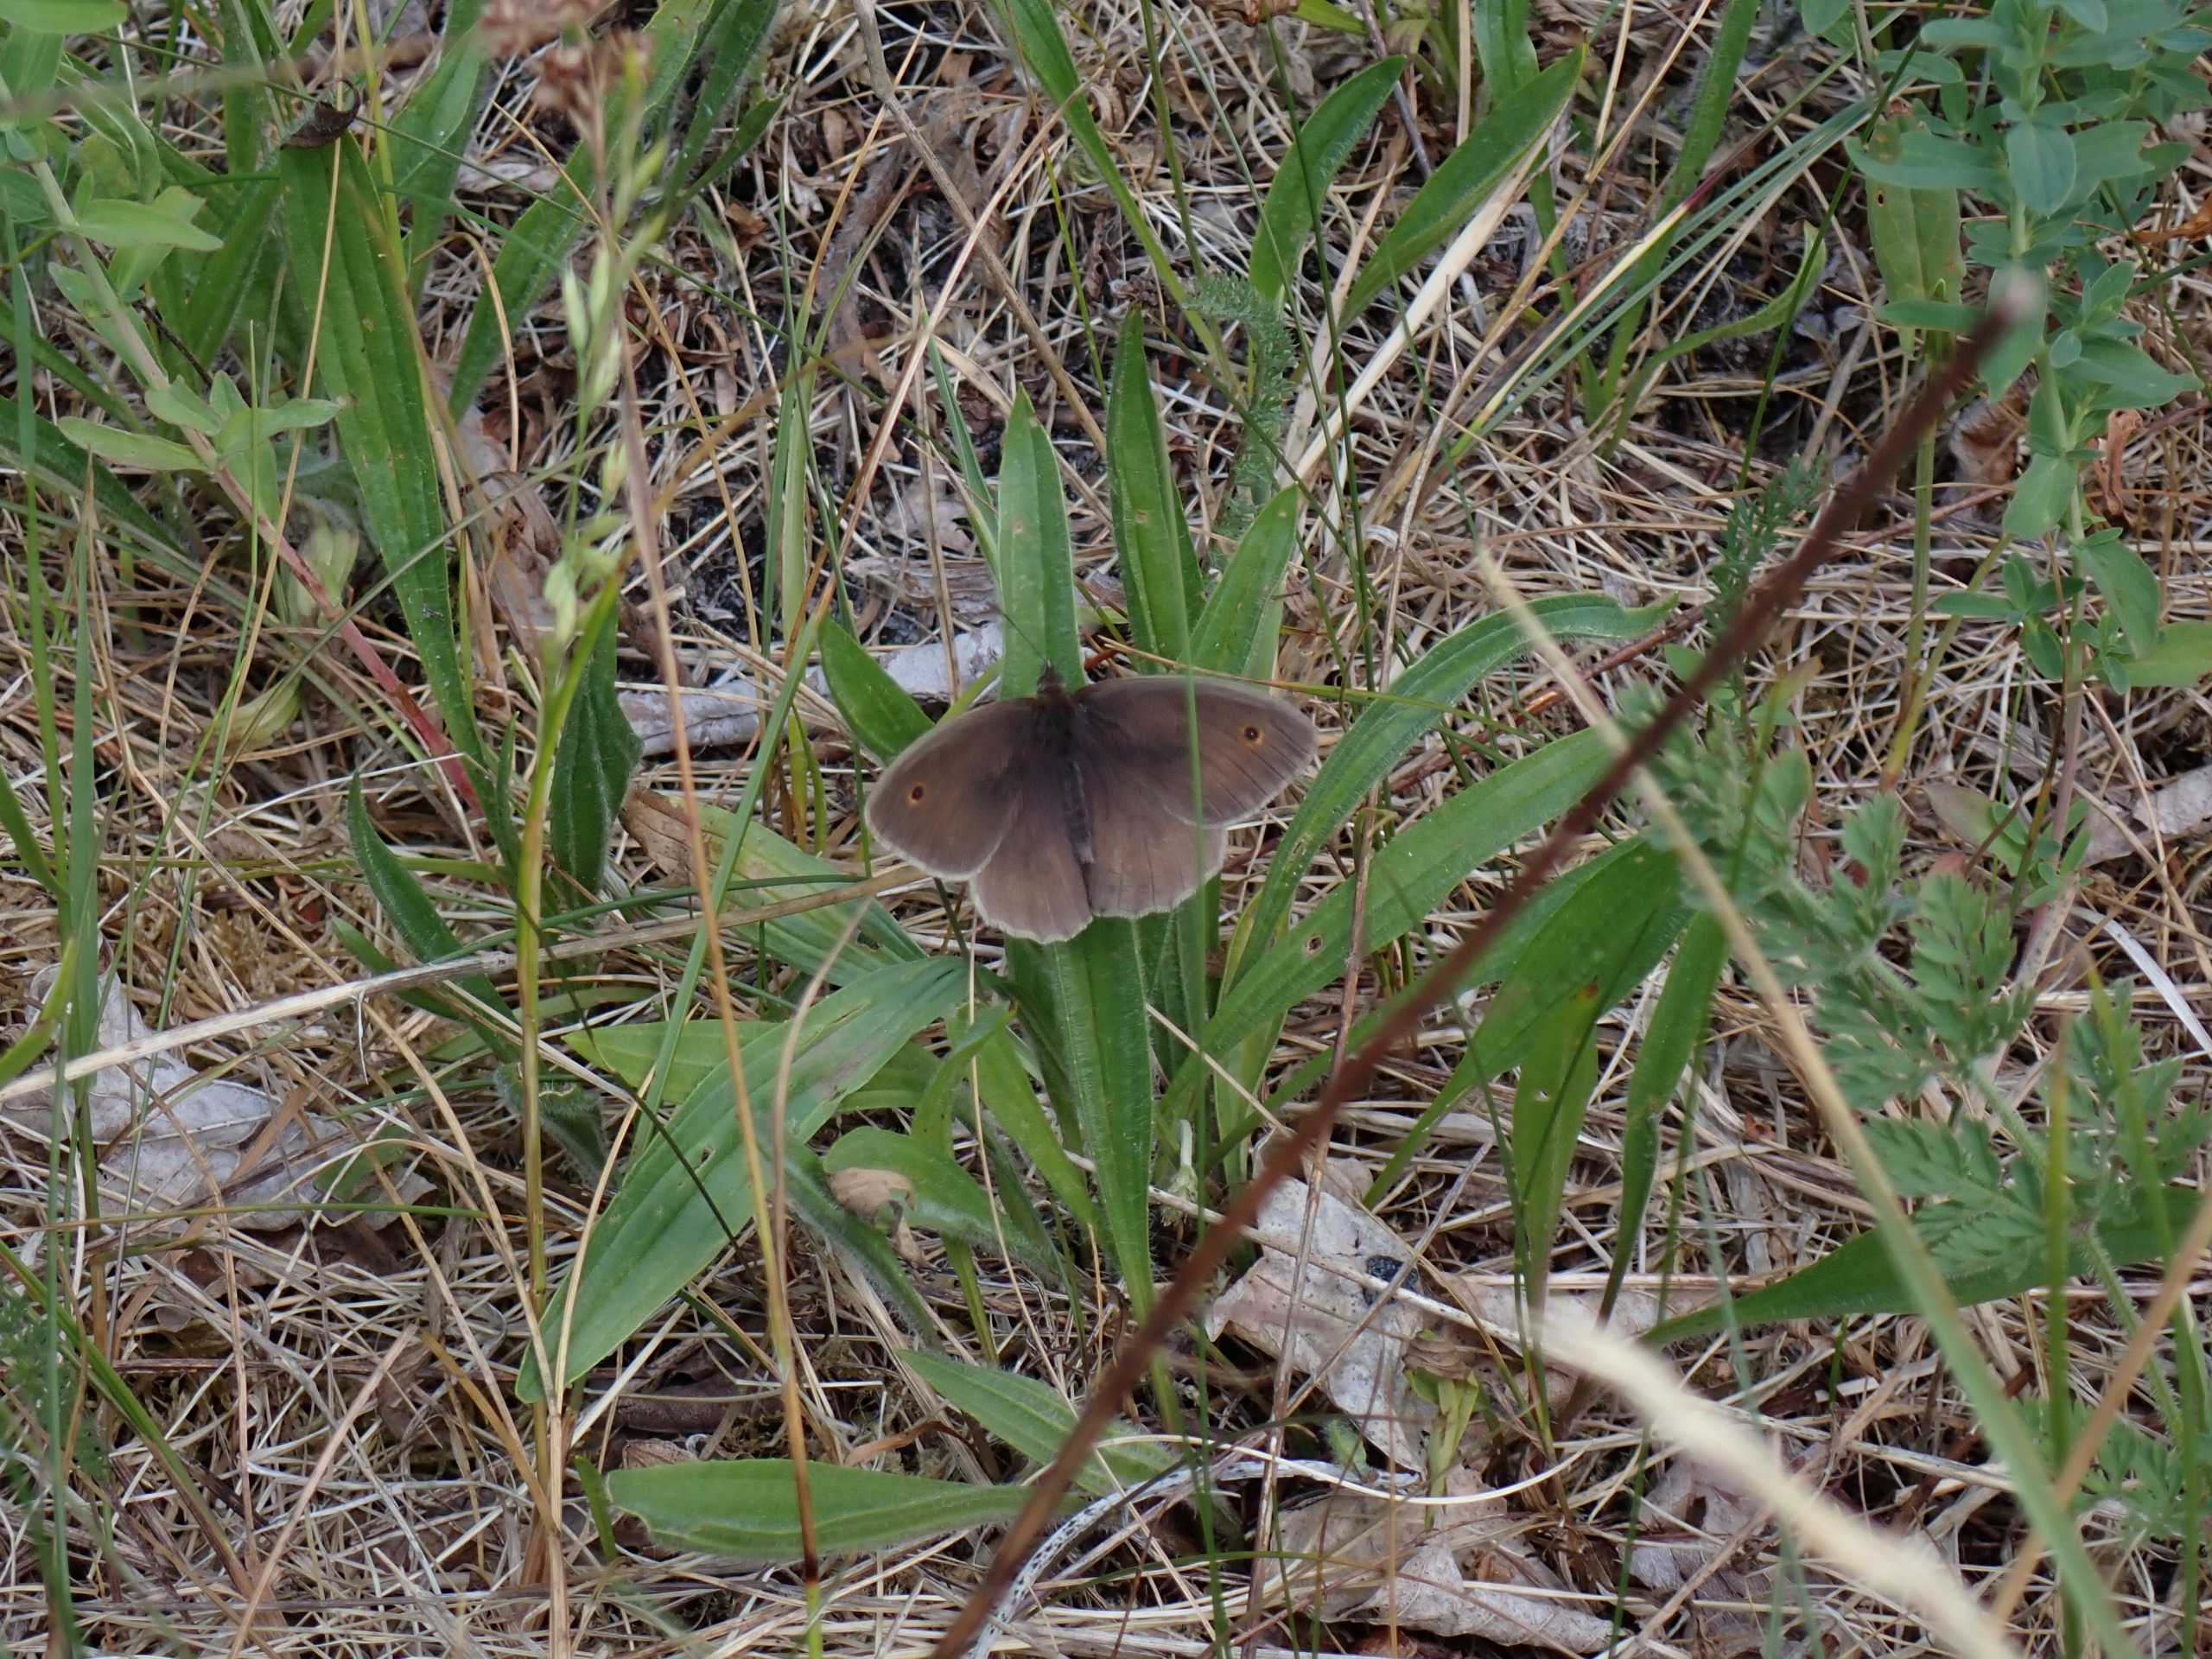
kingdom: Animalia
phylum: Arthropoda
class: Insecta
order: Lepidoptera
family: Nymphalidae
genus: Maniola
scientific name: Maniola jurtina
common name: Græsrandøje
